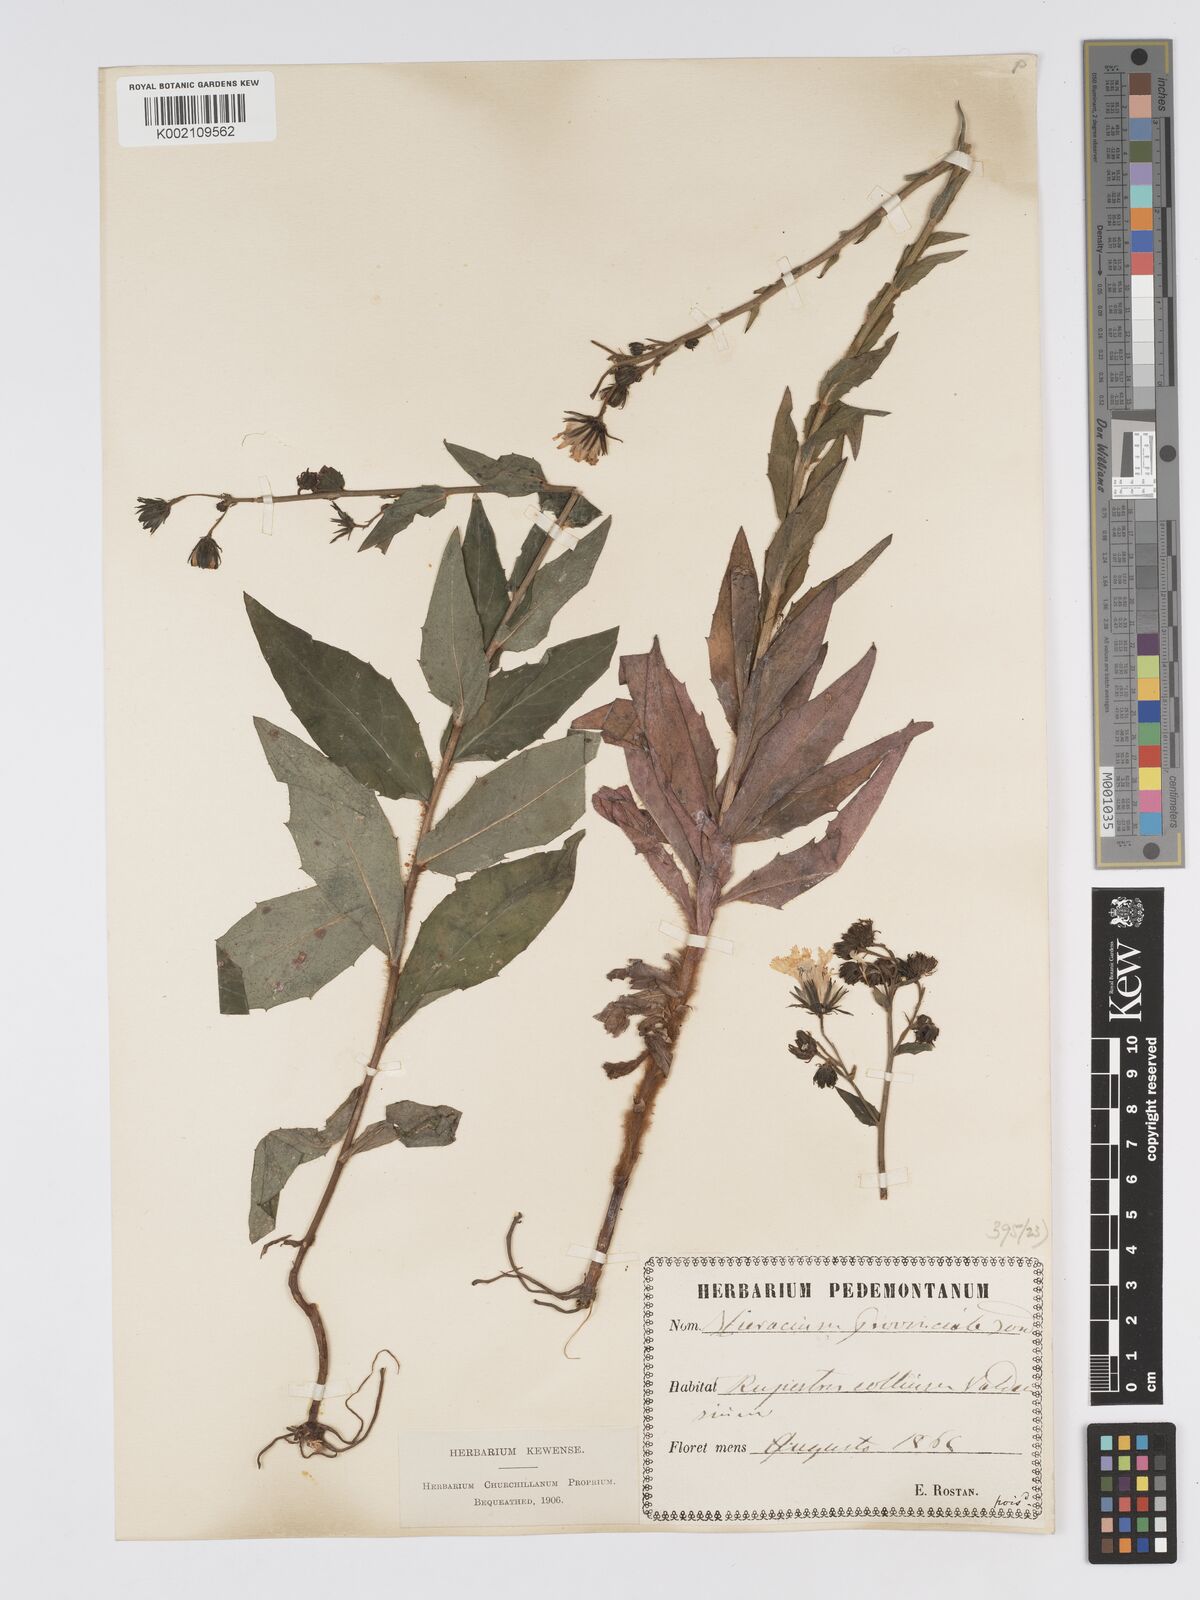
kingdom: Plantae
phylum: Tracheophyta
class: Magnoliopsida
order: Asterales
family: Asteraceae
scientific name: Asteraceae
